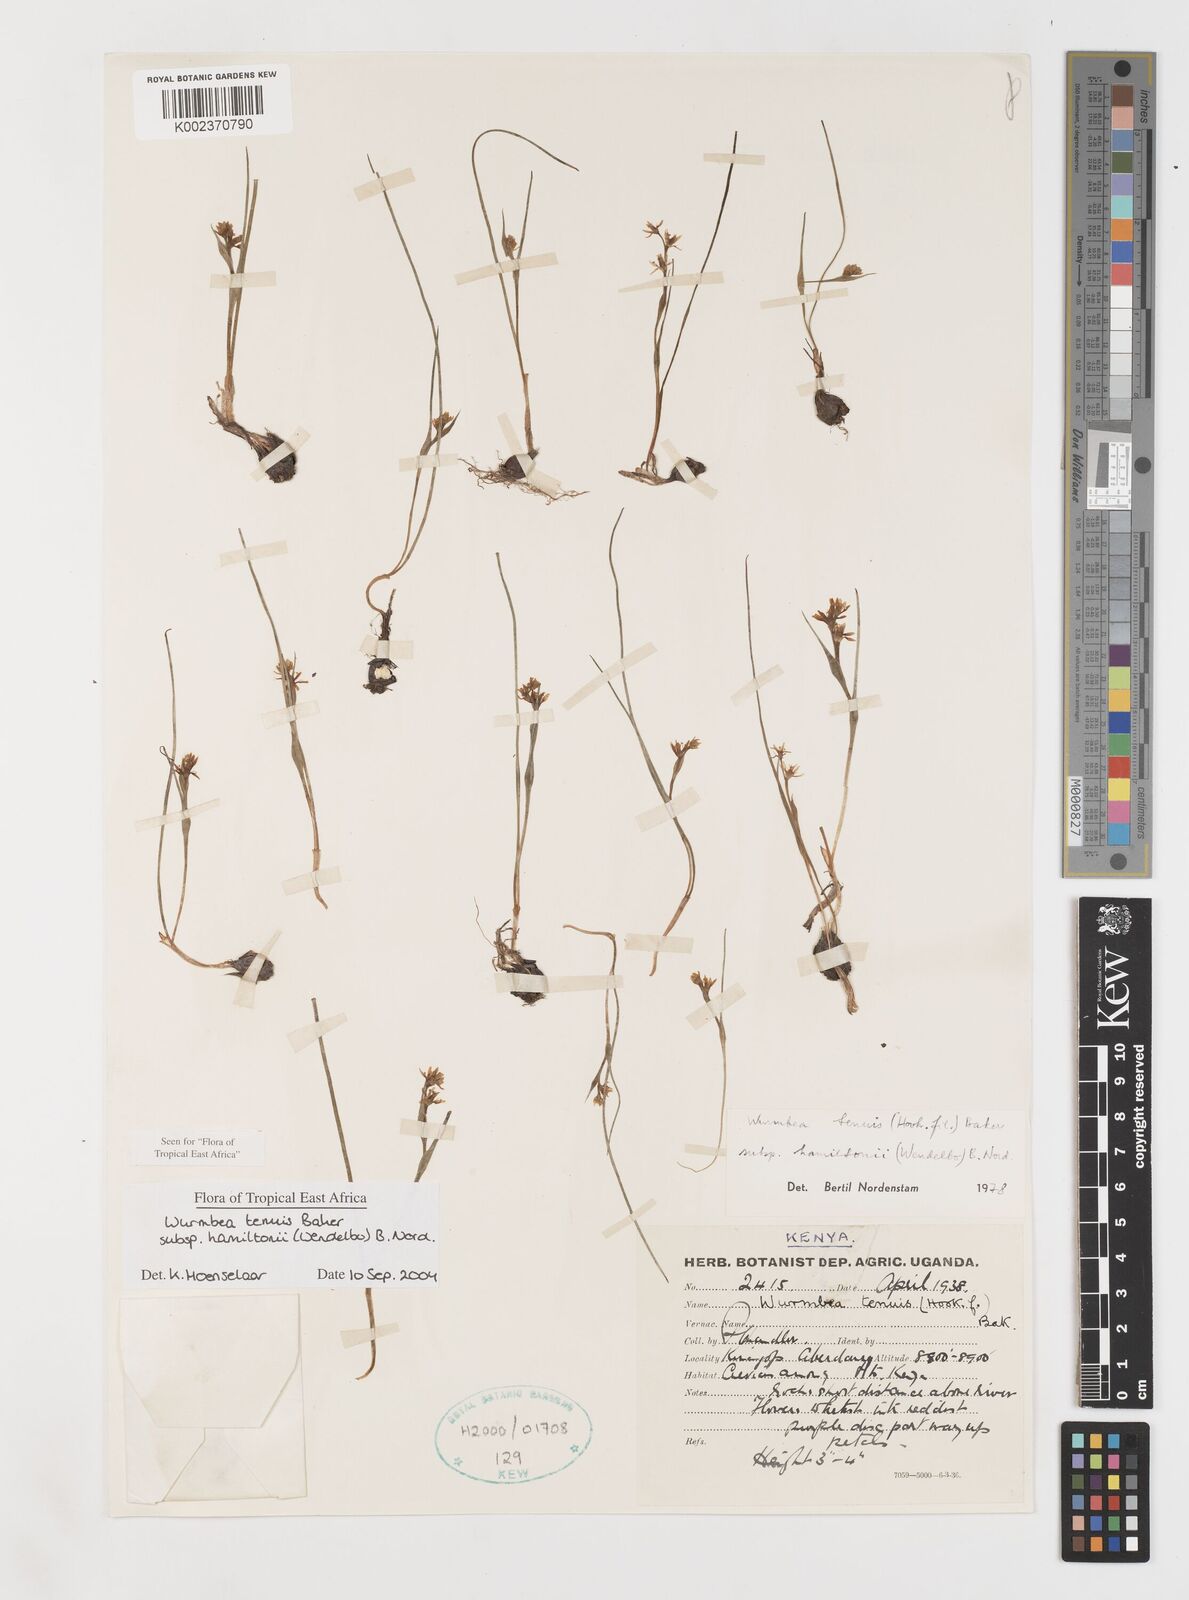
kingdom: Plantae
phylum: Tracheophyta
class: Liliopsida
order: Liliales
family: Colchicaceae
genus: Wurmbea
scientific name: Wurmbea tenuis
